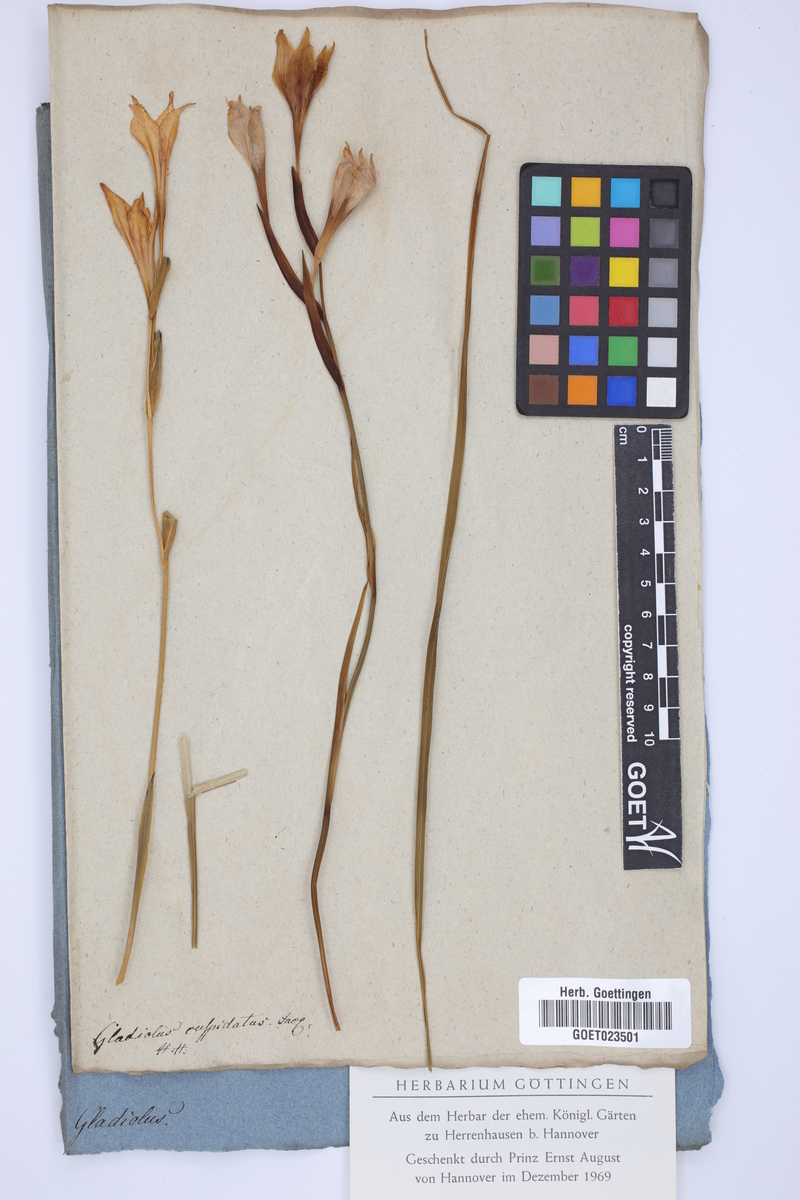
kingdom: Plantae
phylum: Tracheophyta
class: Liliopsida
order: Asparagales
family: Iridaceae
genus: Gladiolus
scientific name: Gladiolus undulatus
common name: Large painted-lady
